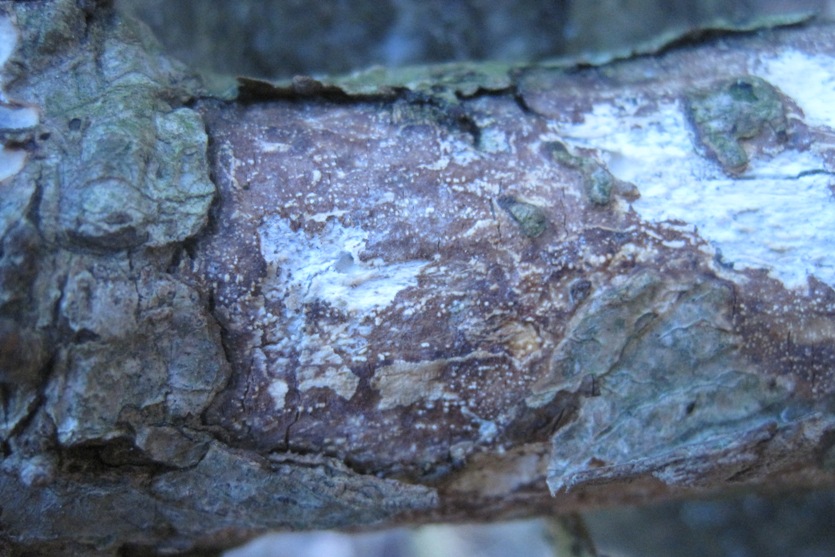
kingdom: Fungi
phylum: Basidiomycota
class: Agaricomycetes
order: Corticiales
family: Vuilleminiaceae
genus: Vuilleminia
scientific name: Vuilleminia comedens
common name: almindelig barksprænger
